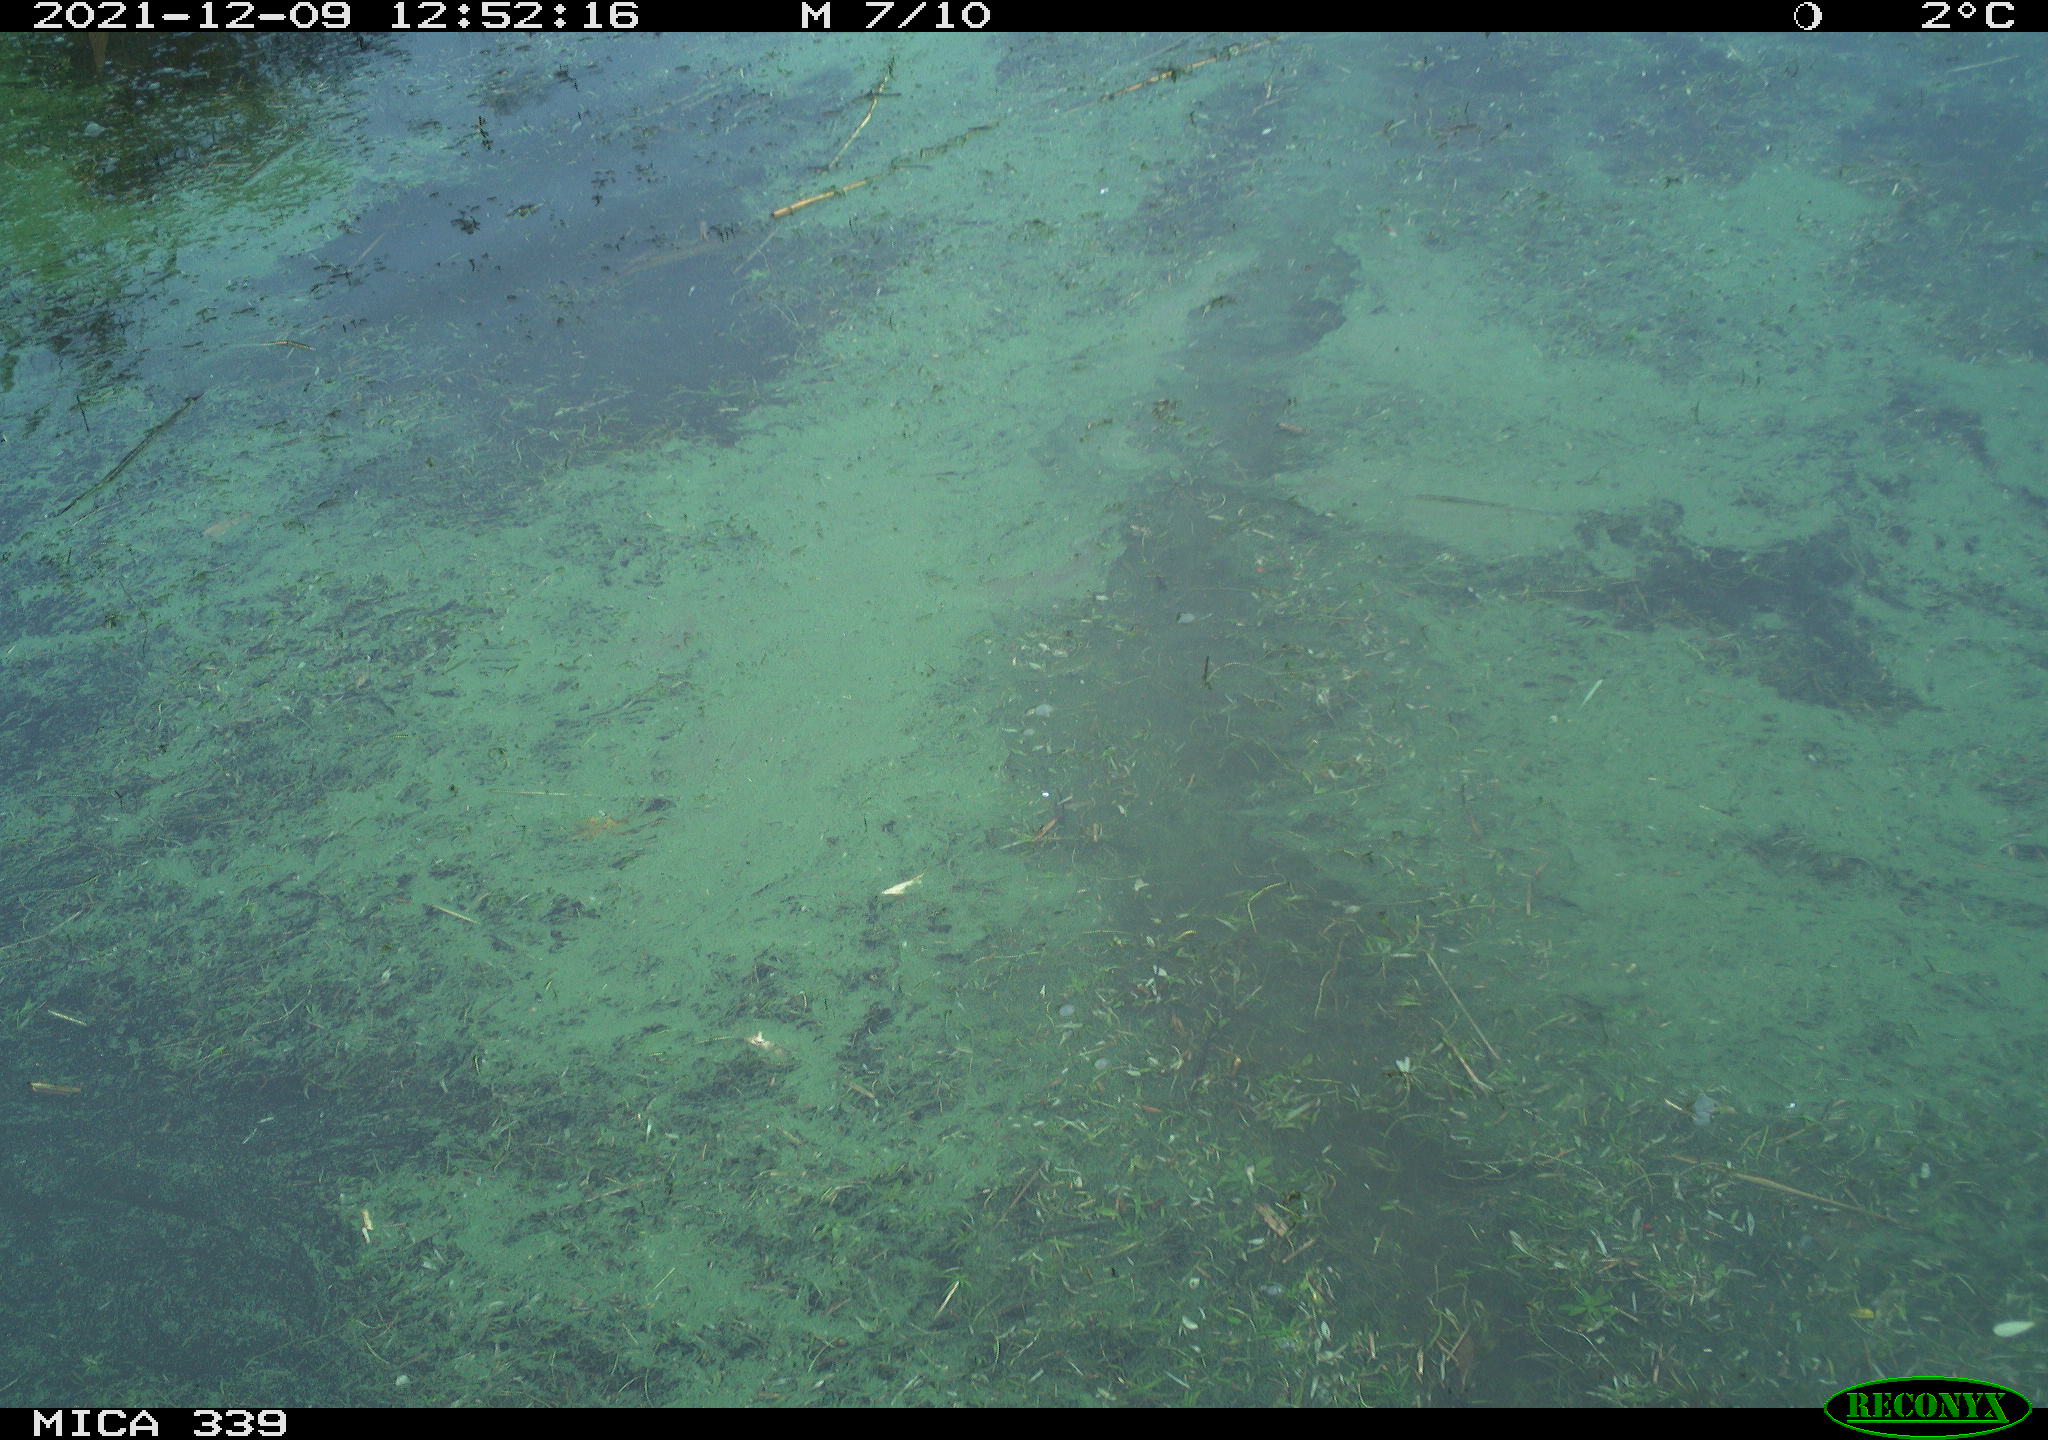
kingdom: Animalia
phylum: Chordata
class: Aves
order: Anseriformes
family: Anatidae
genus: Anas
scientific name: Anas platyrhynchos
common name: Mallard
